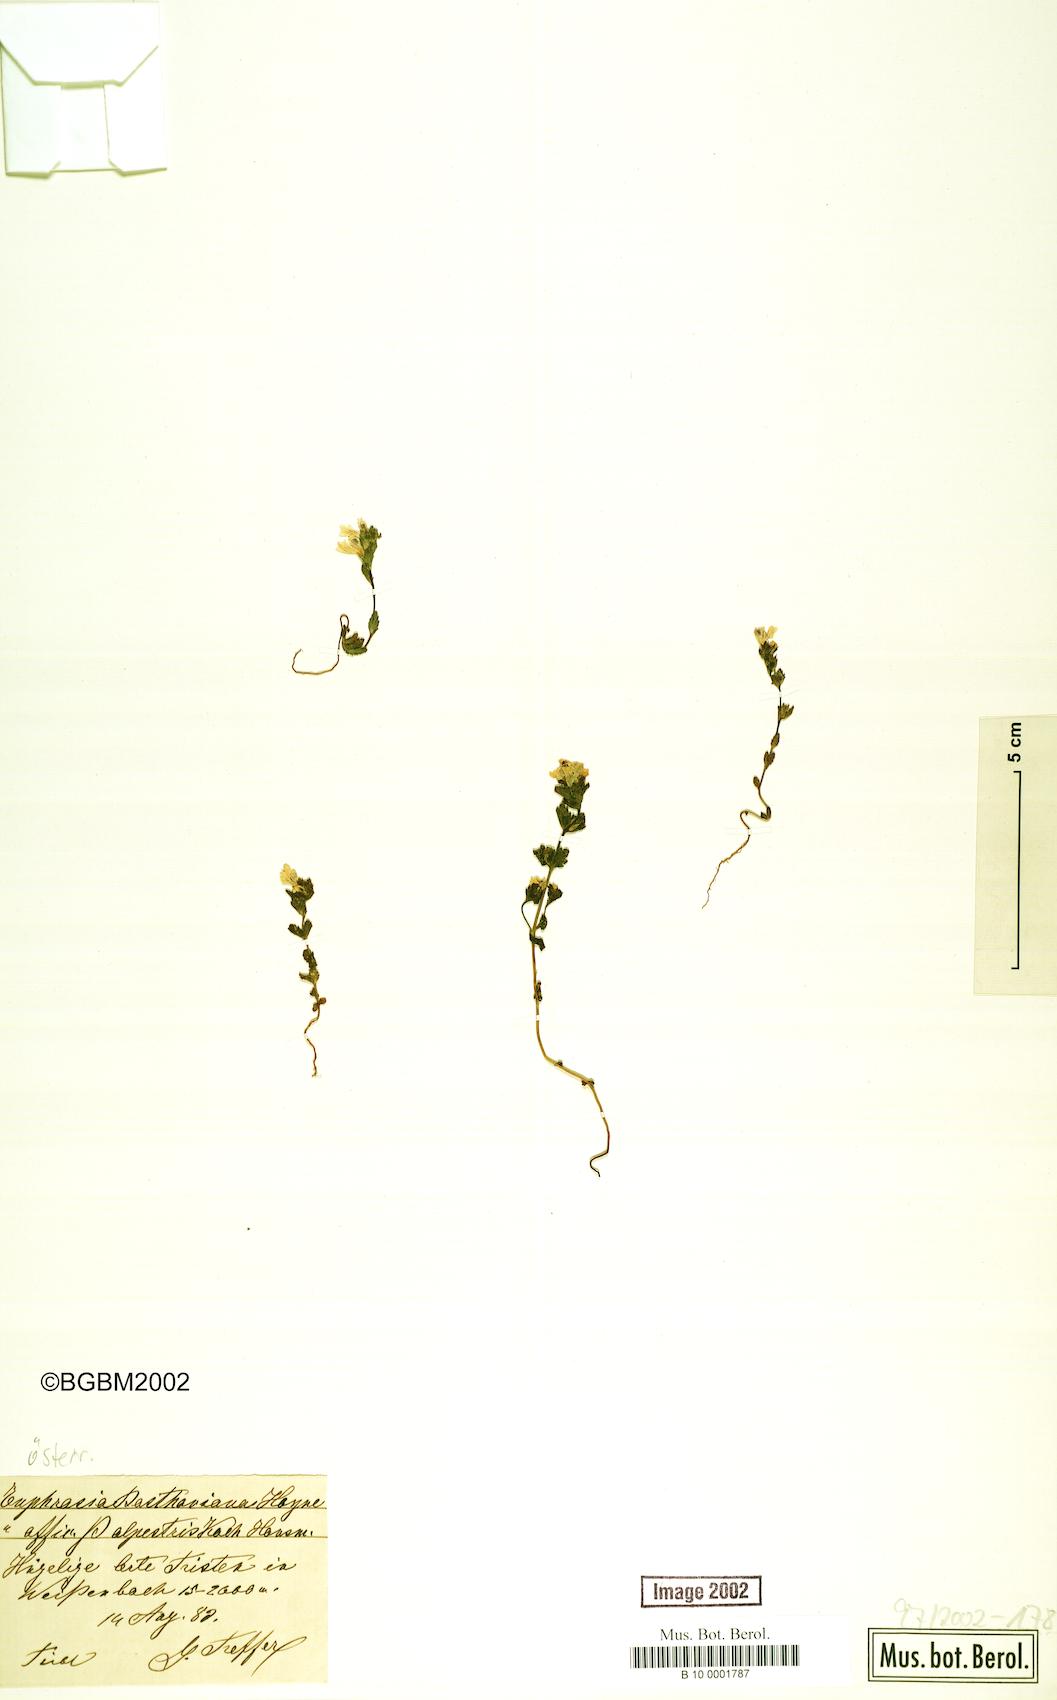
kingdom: Plantae
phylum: Tracheophyta
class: Magnoliopsida
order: Lamiales
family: Orobanchaceae
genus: Euphrasia
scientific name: Euphrasia
